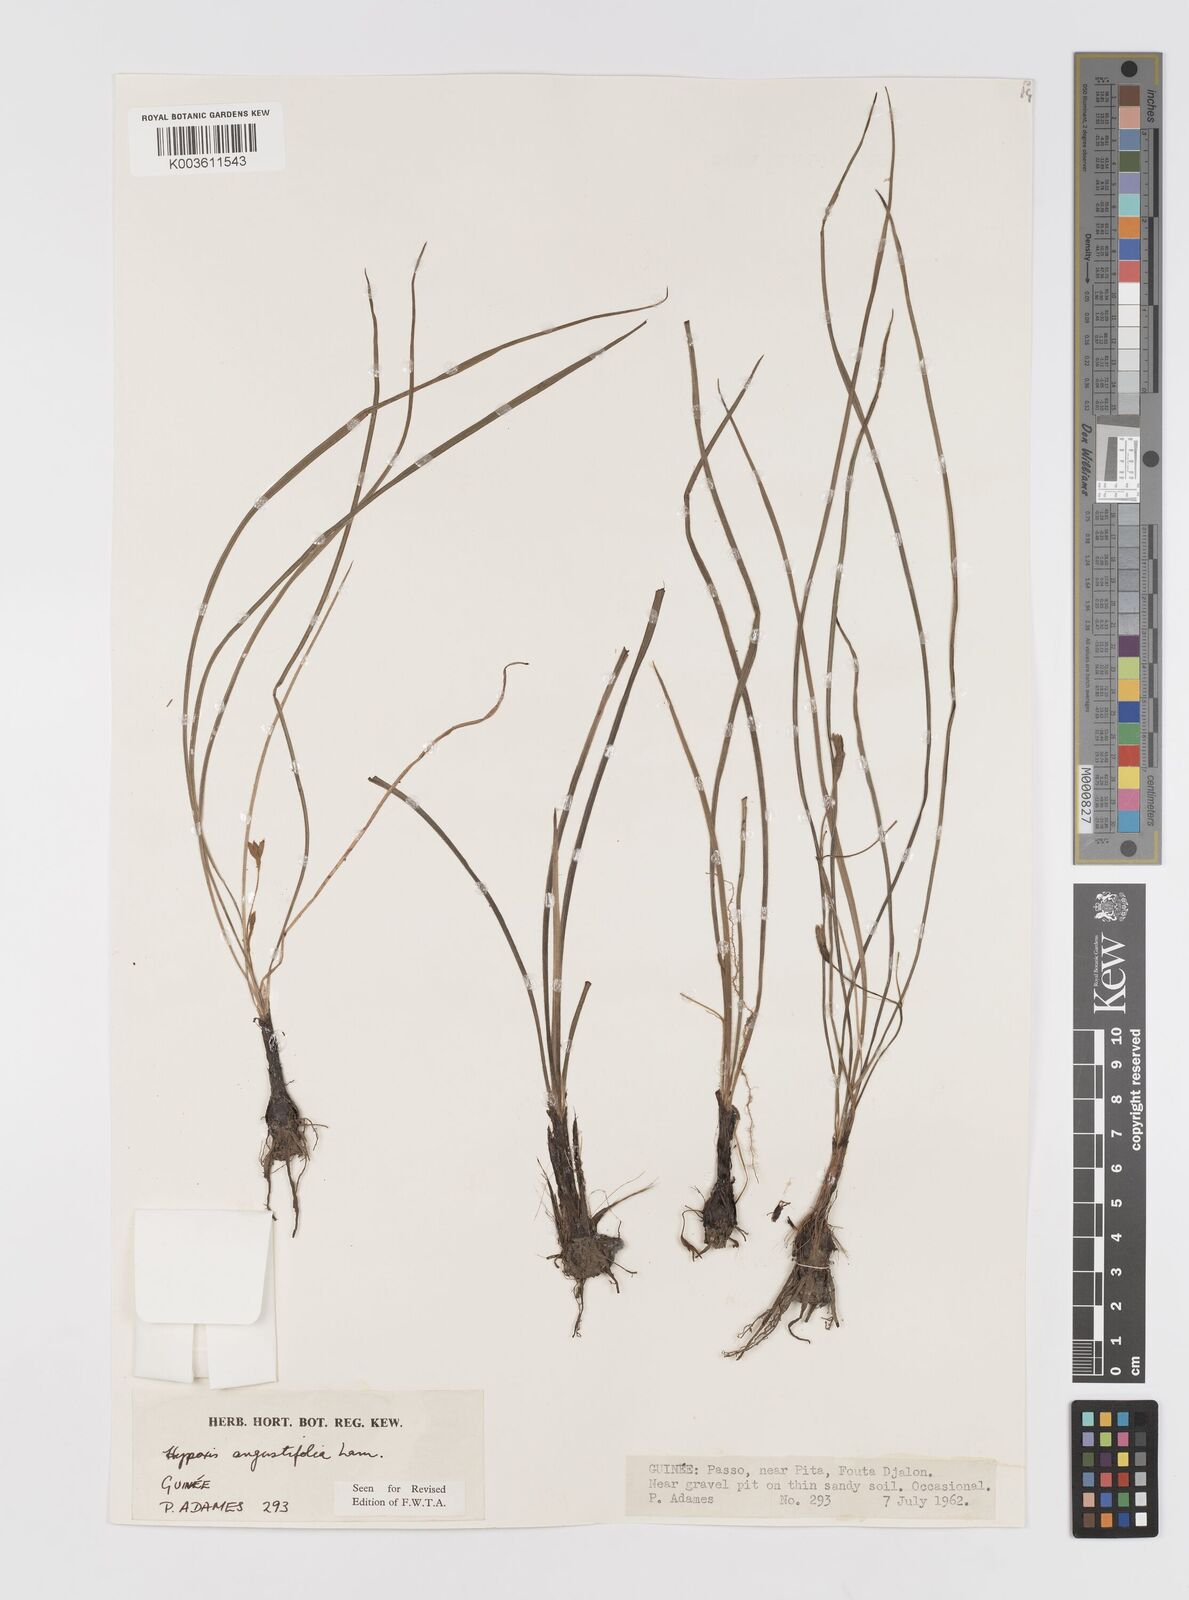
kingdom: Plantae
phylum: Tracheophyta
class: Liliopsida
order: Asparagales
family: Hypoxidaceae
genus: Hypoxis
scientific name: Hypoxis angustifolia
